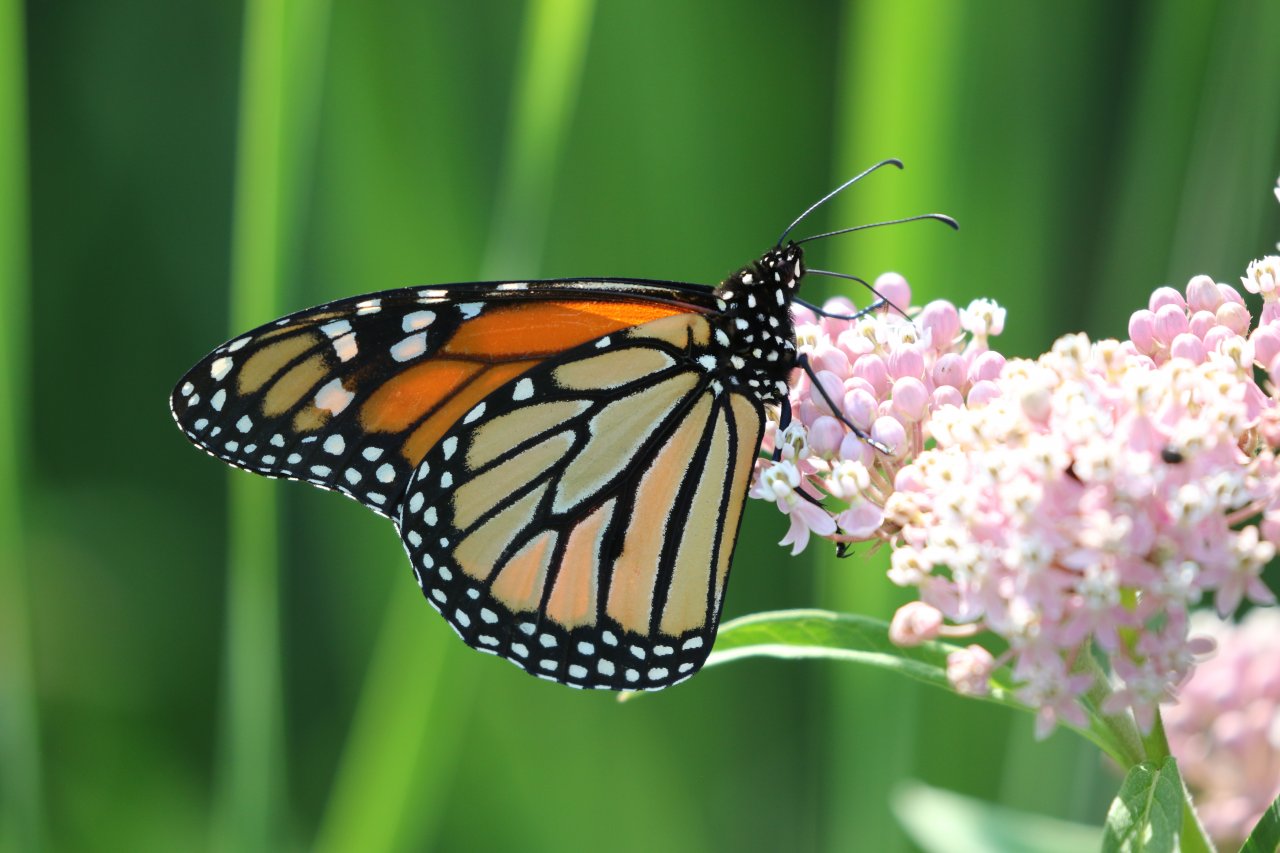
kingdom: Animalia
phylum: Arthropoda
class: Insecta
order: Lepidoptera
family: Nymphalidae
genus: Danaus
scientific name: Danaus plexippus
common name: Monarch
